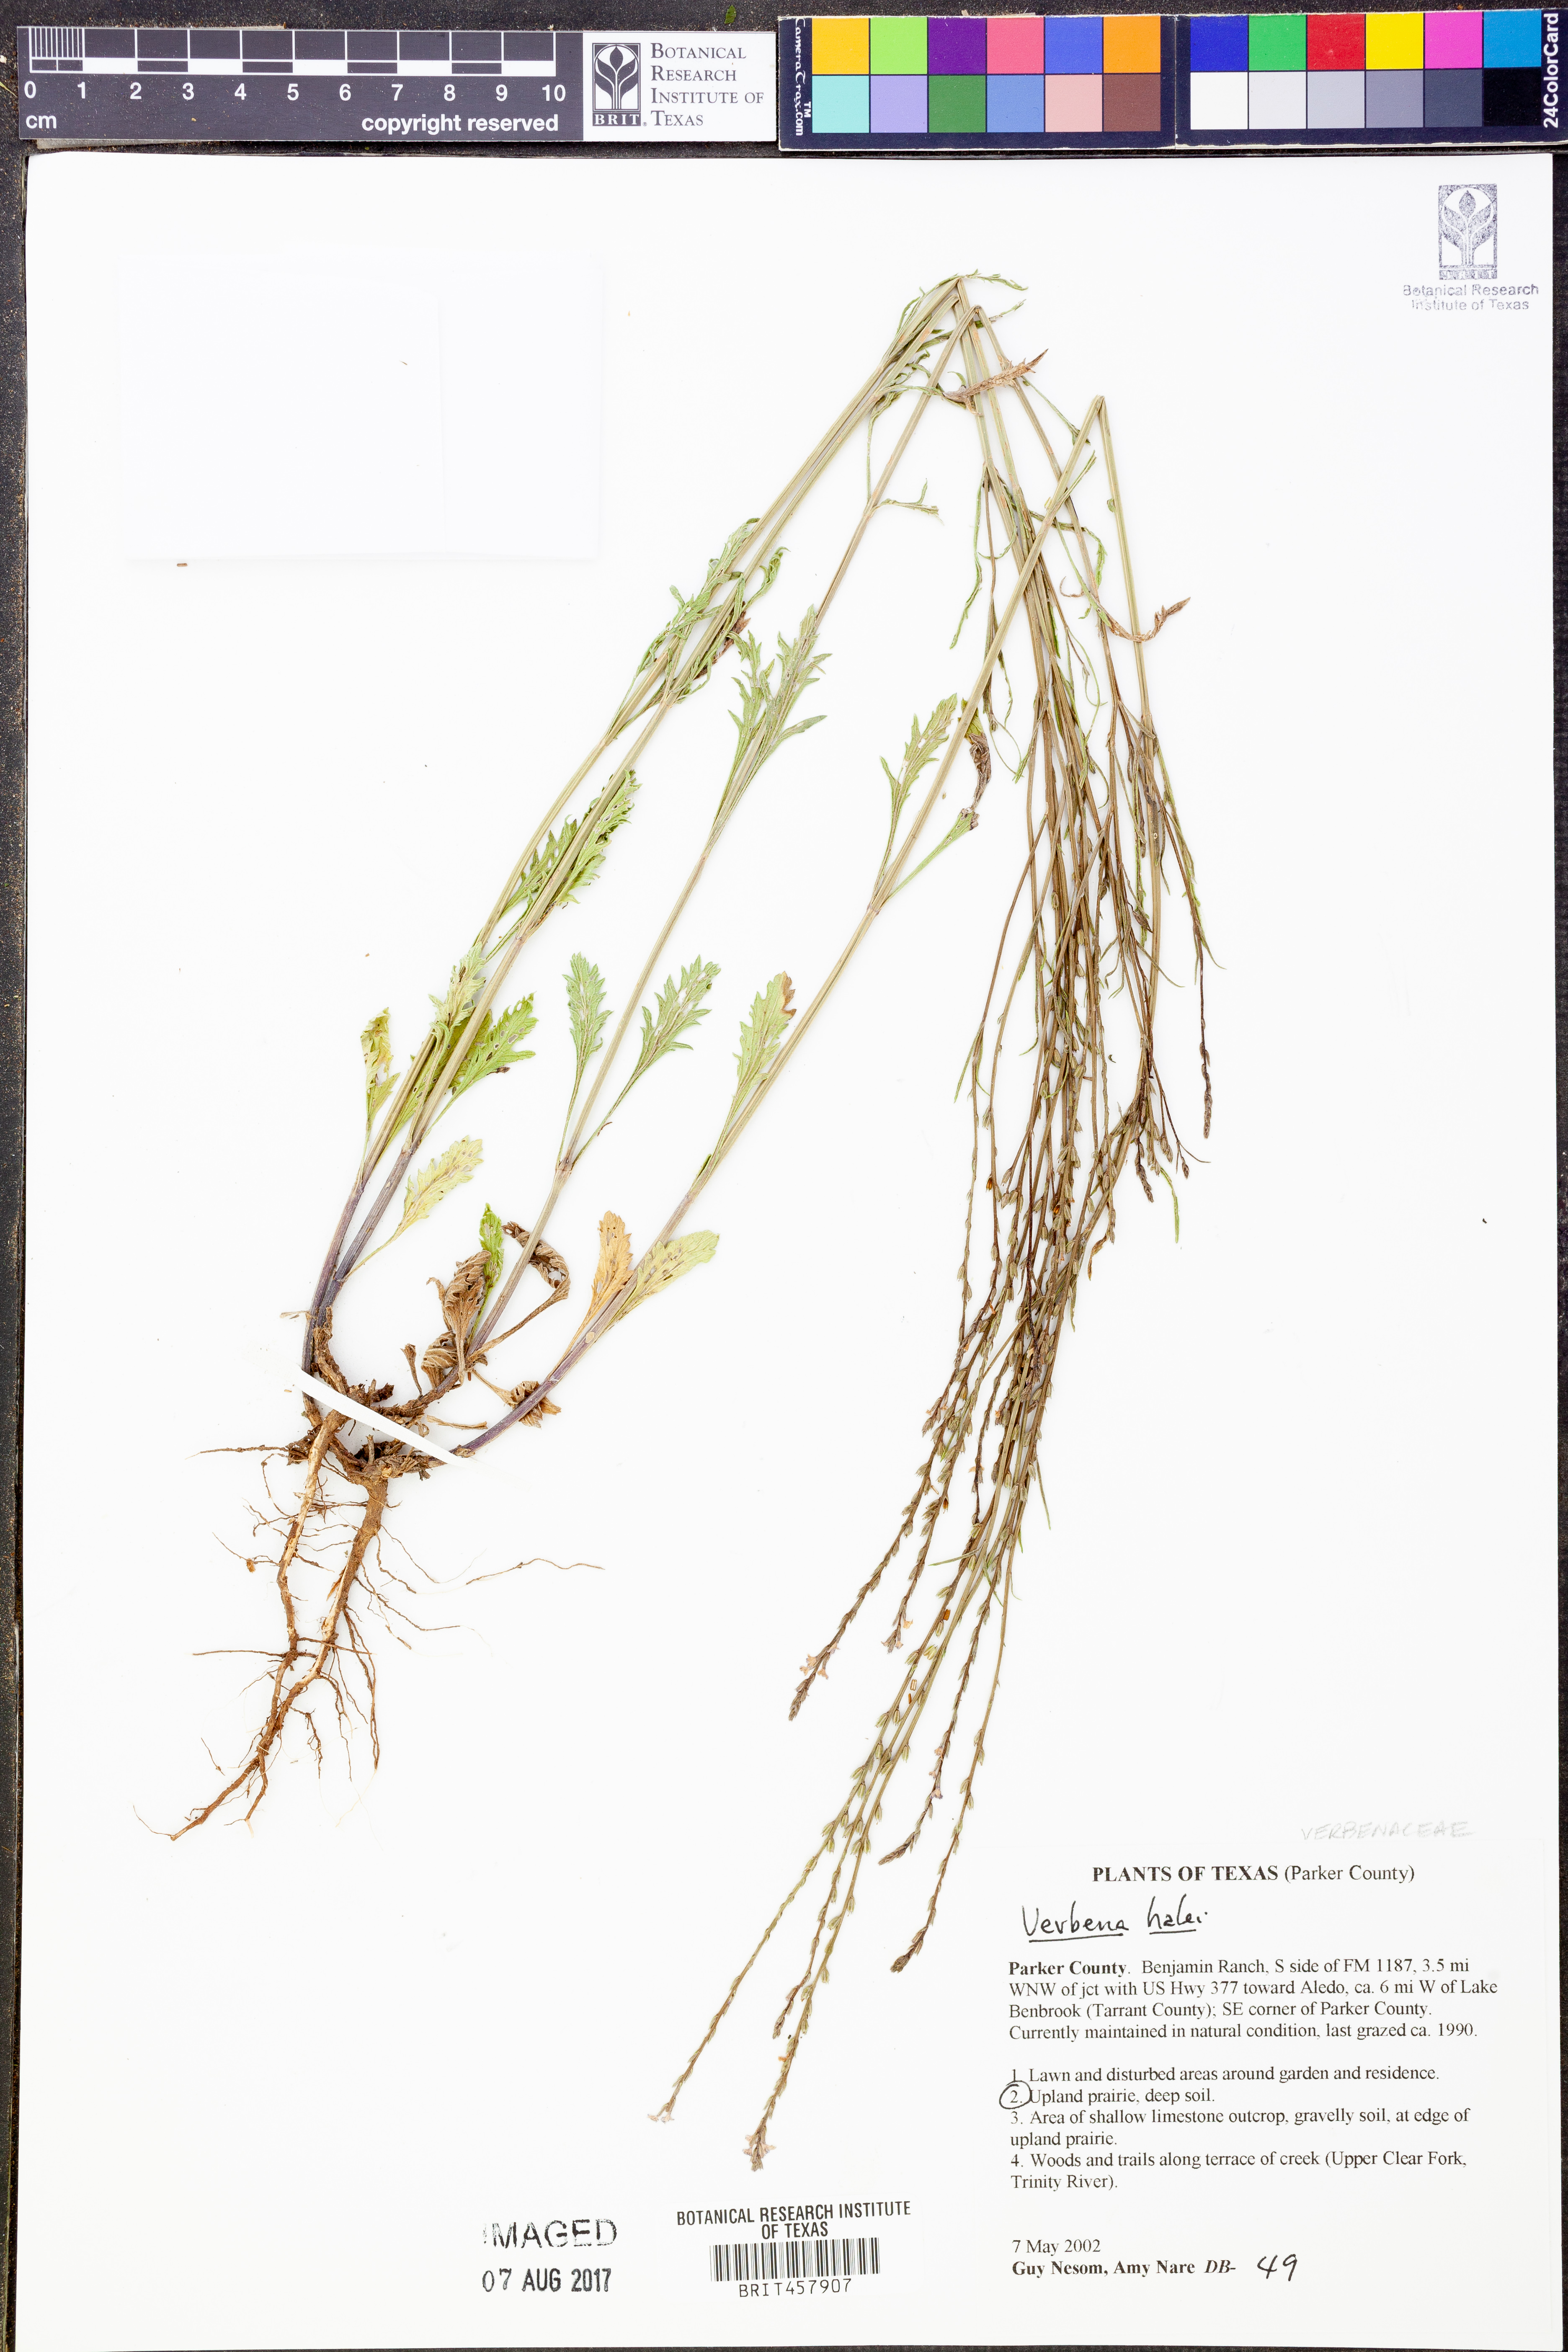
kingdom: Plantae
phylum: Tracheophyta
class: Magnoliopsida
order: Lamiales
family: Verbenaceae
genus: Verbena
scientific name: Verbena halei
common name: Texas vervain
